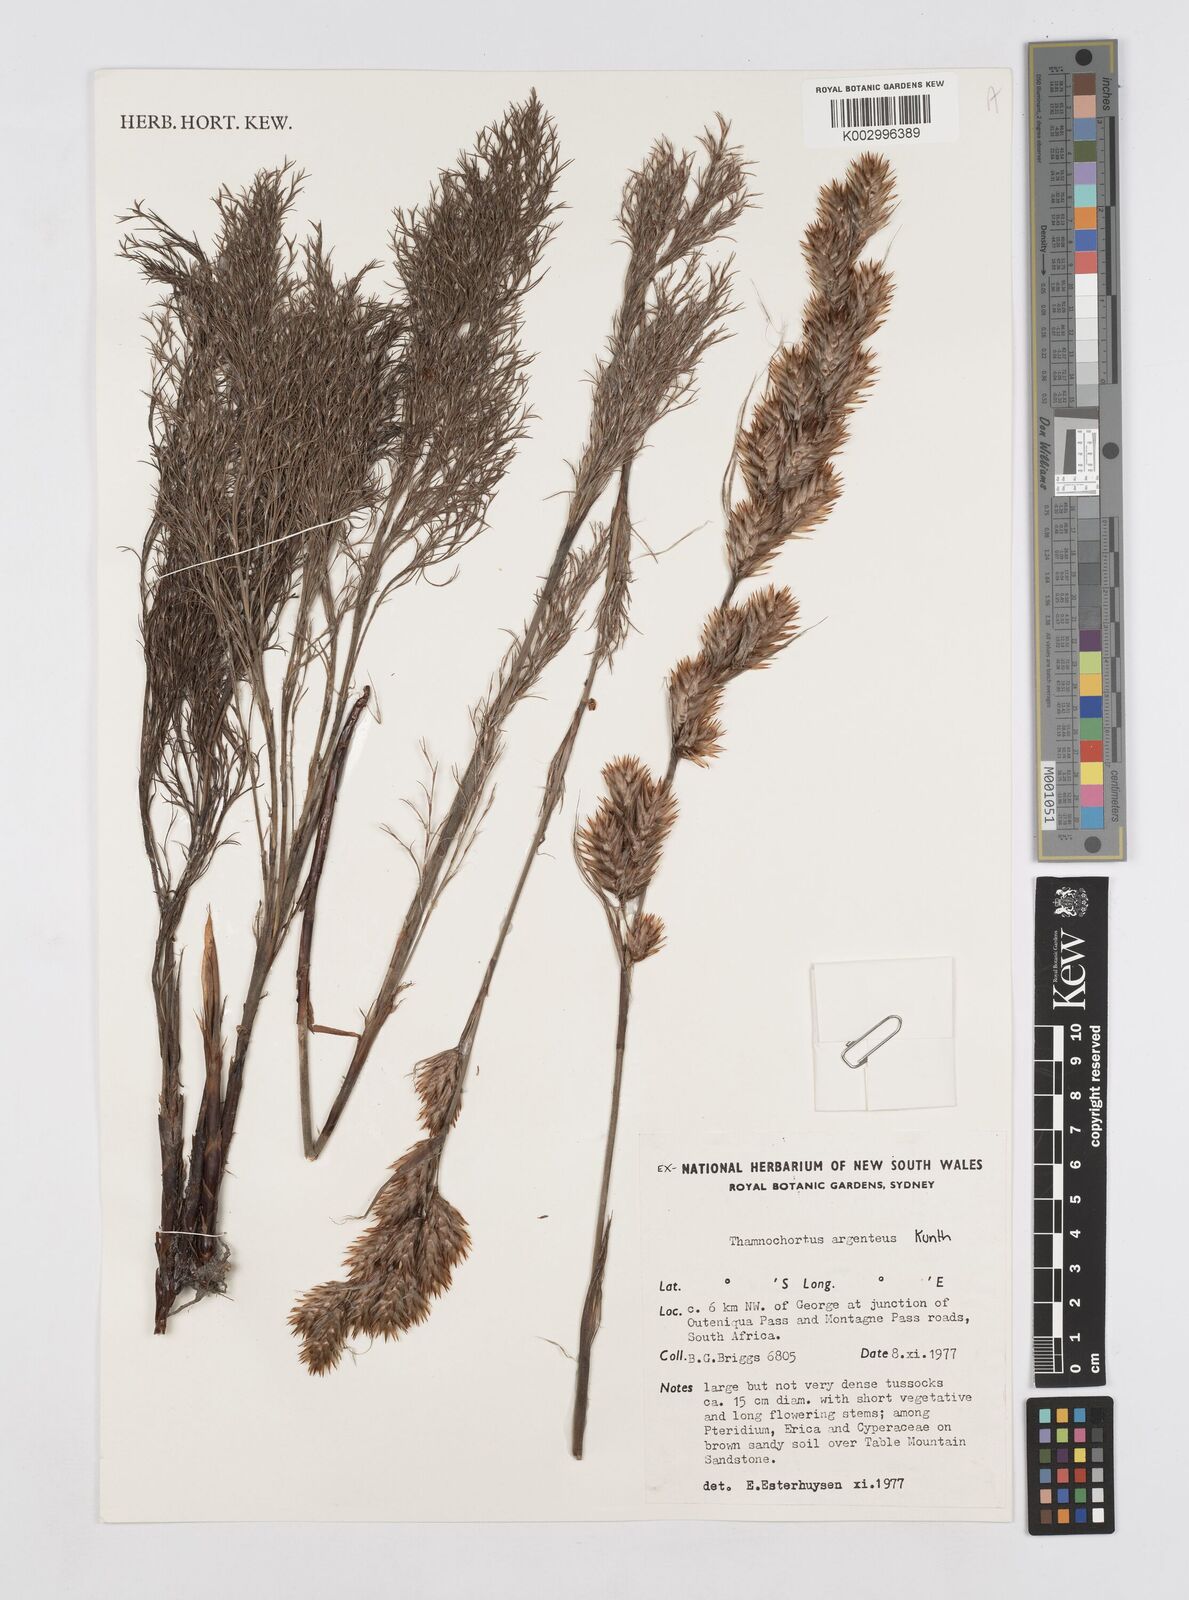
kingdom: Plantae
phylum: Tracheophyta
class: Liliopsida
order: Poales
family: Restionaceae
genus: Hypodiscus
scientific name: Hypodiscus argenteus
